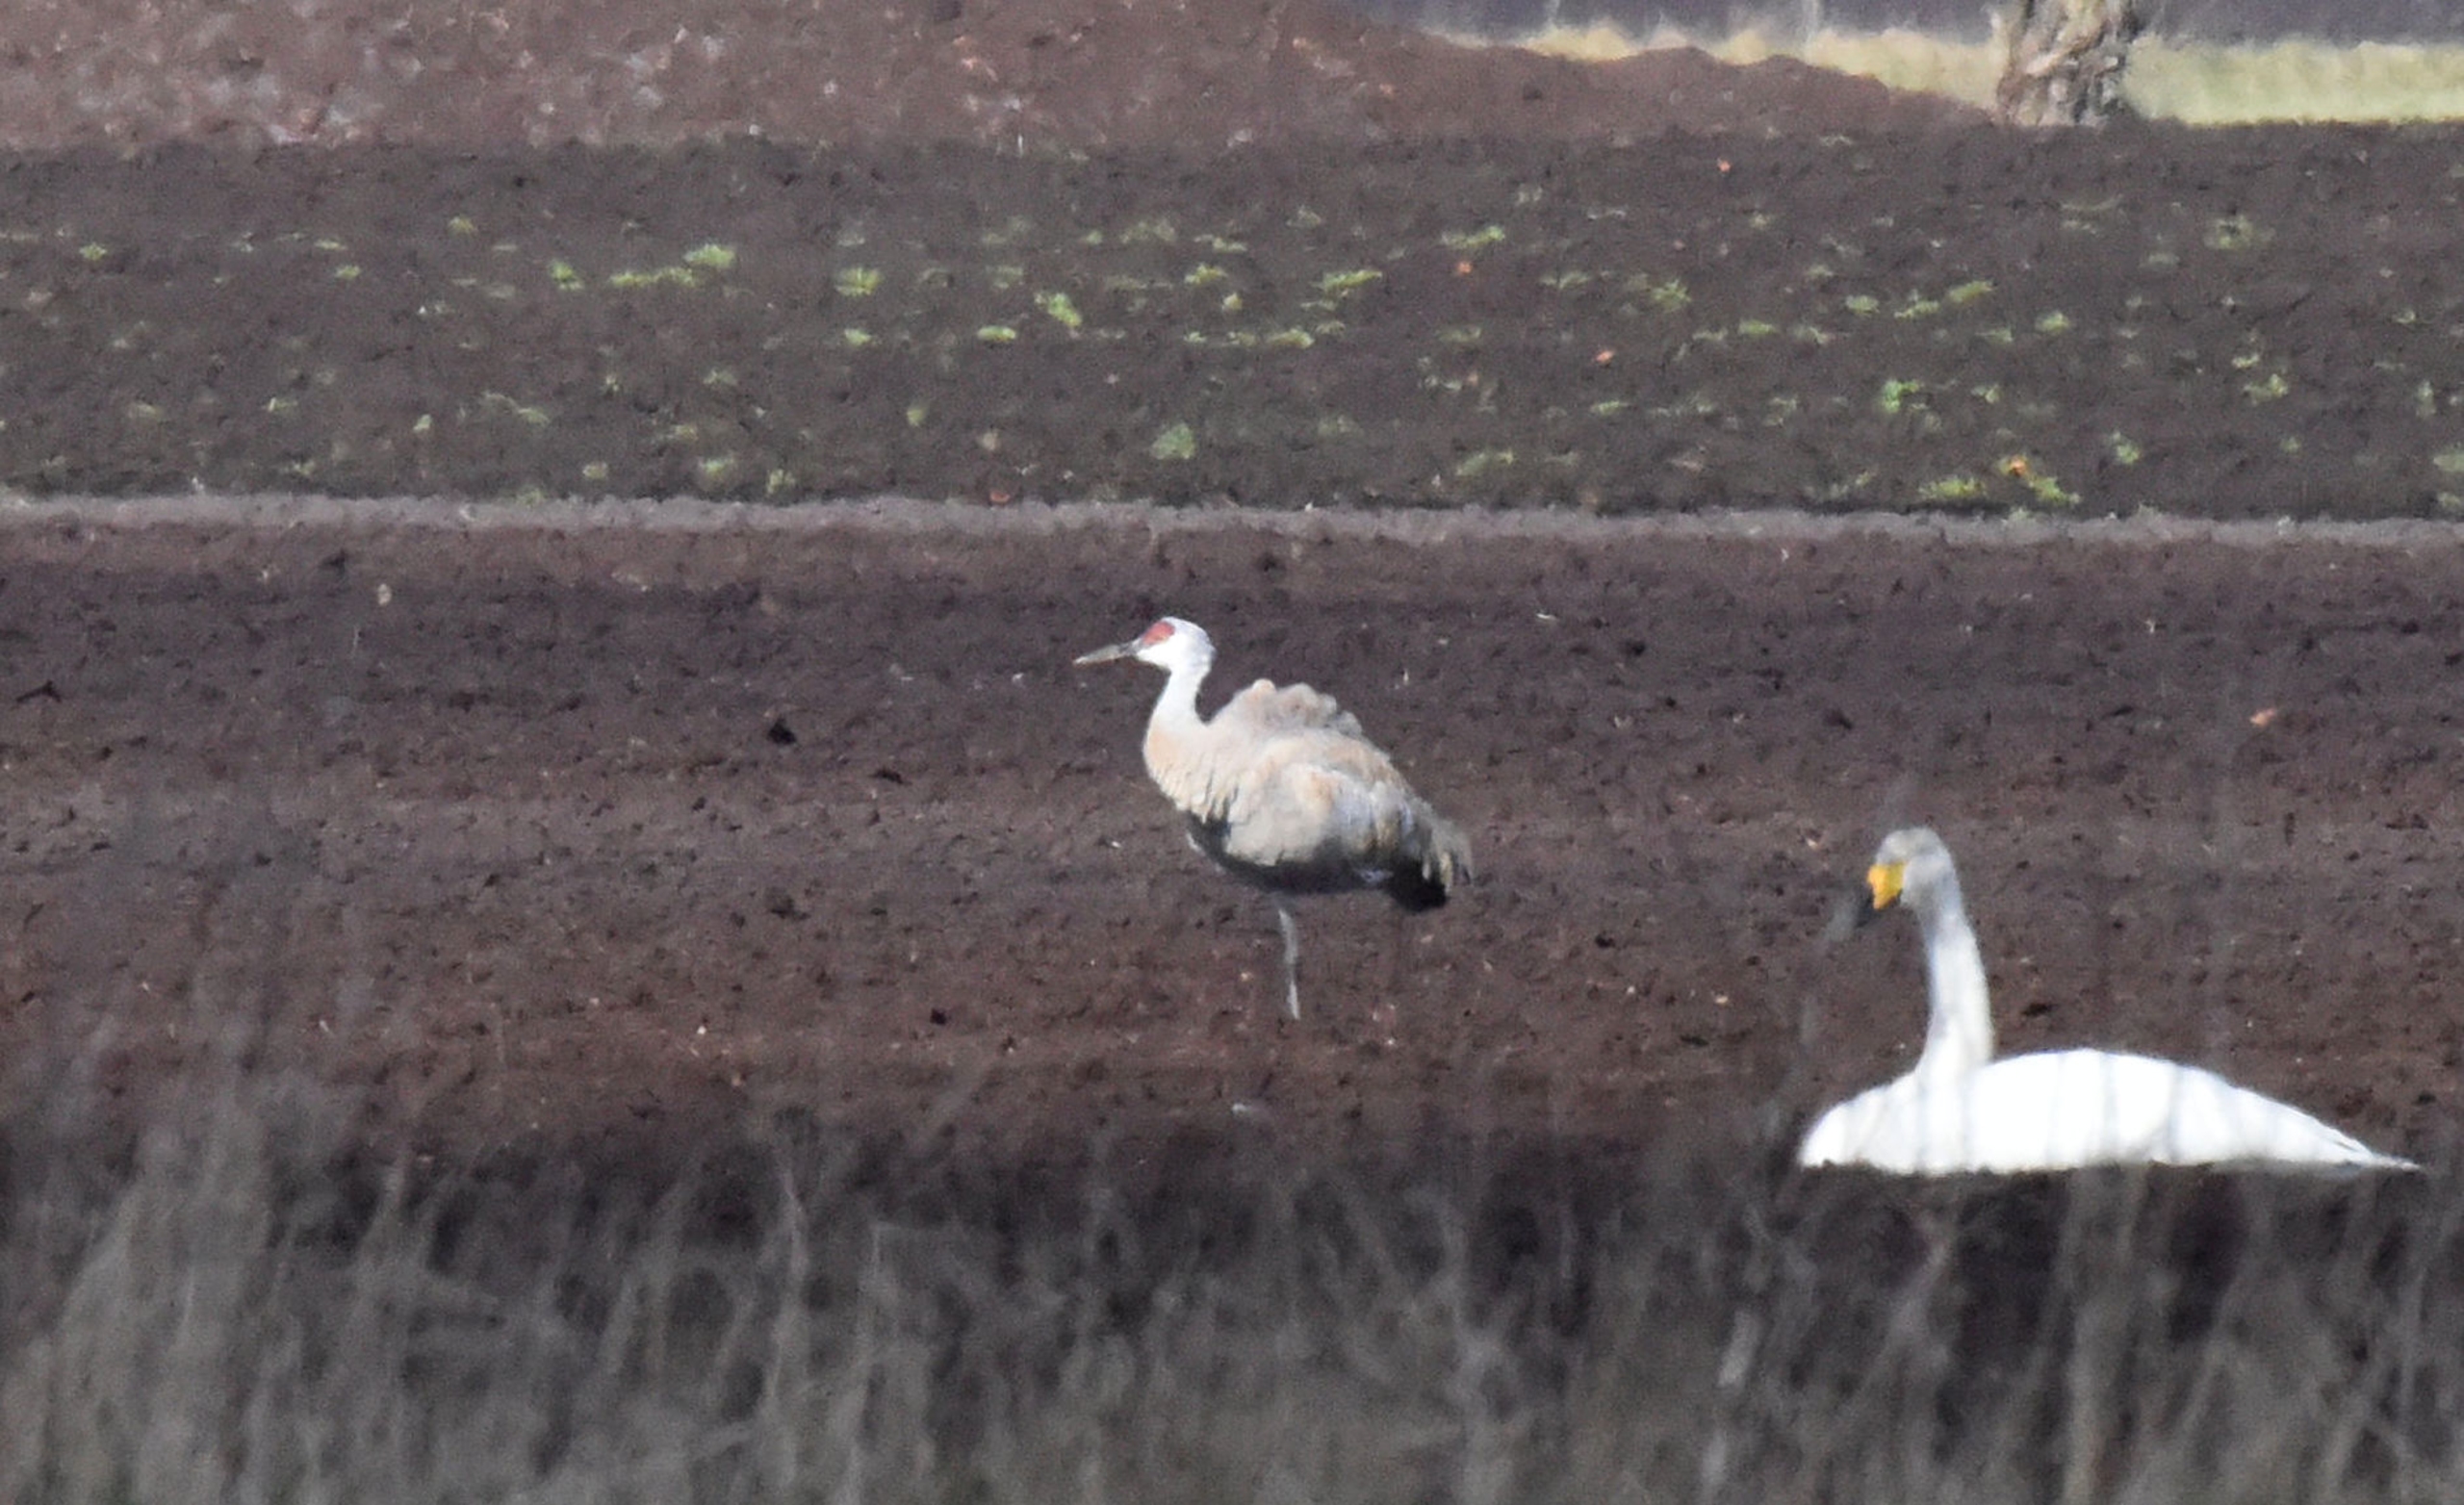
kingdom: Animalia
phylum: Chordata
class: Aves
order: Gruiformes
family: Gruidae
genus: Grus
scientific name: Grus canadensis
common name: Prærietrane
